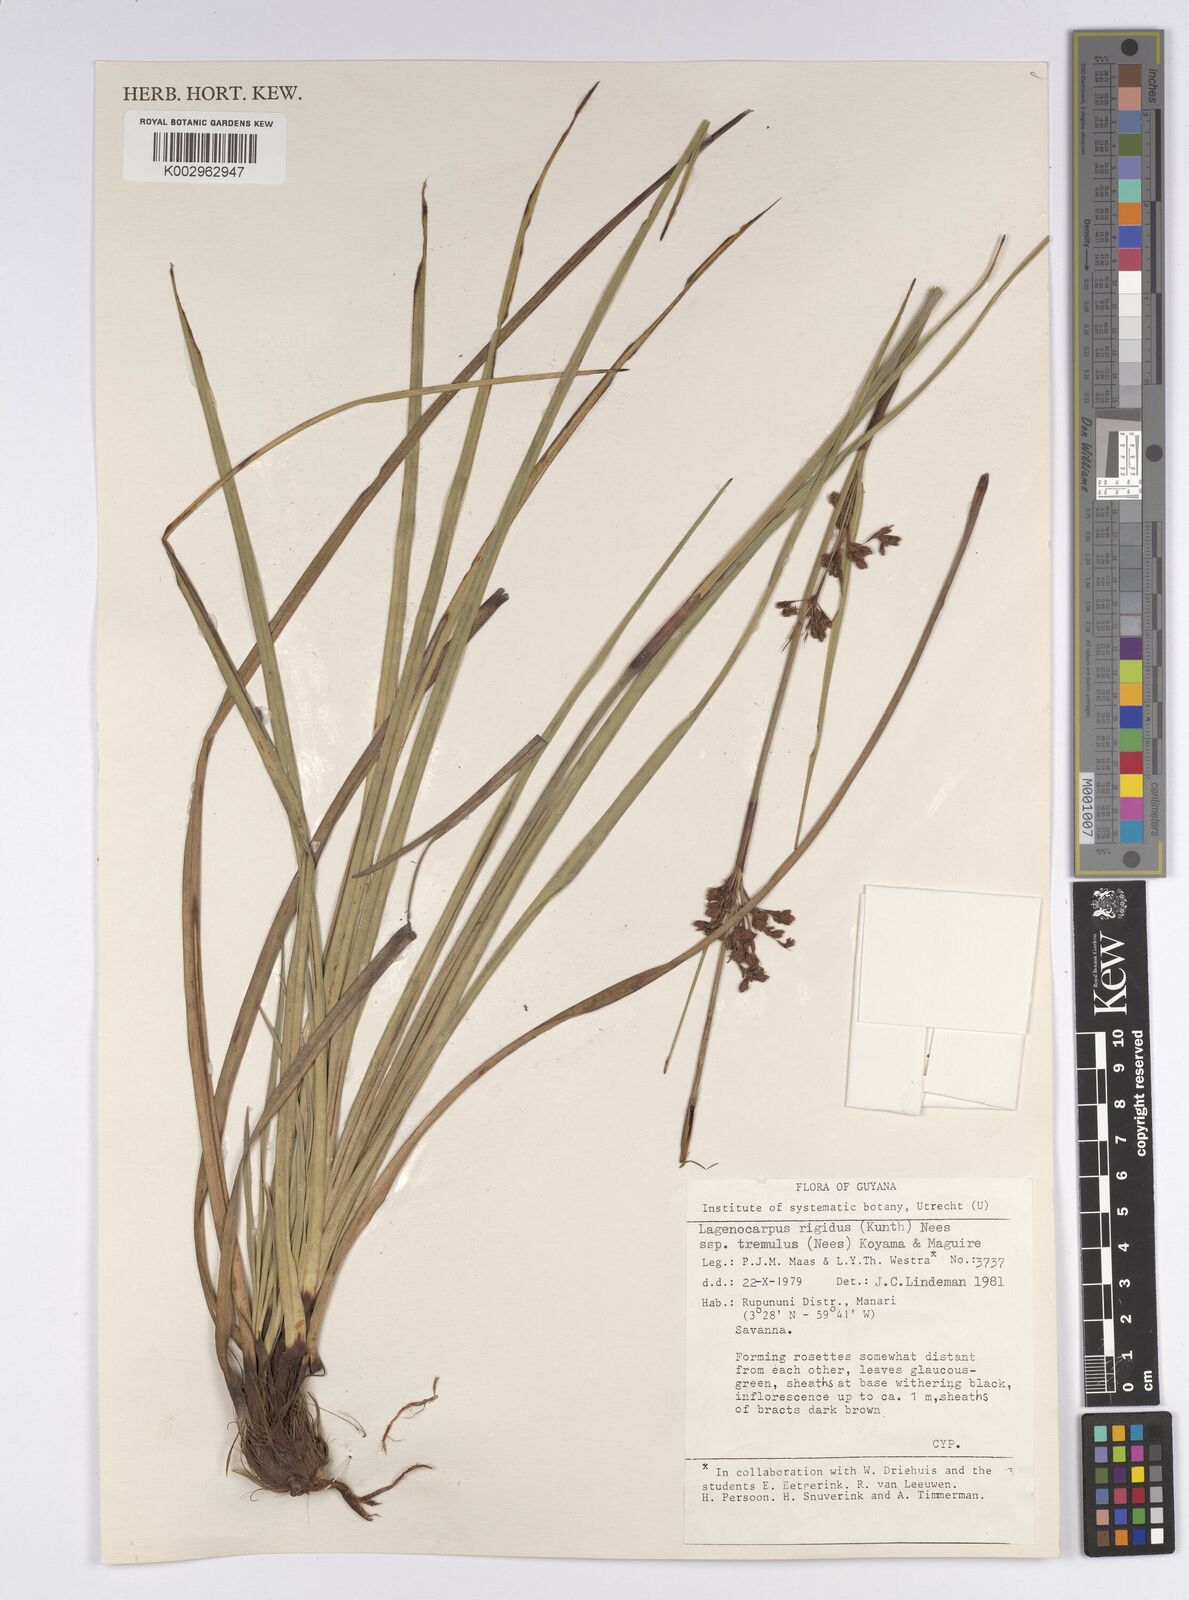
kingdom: Plantae
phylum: Tracheophyta
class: Liliopsida
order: Poales
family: Cyperaceae
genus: Lagenocarpus
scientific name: Lagenocarpus rigidus
